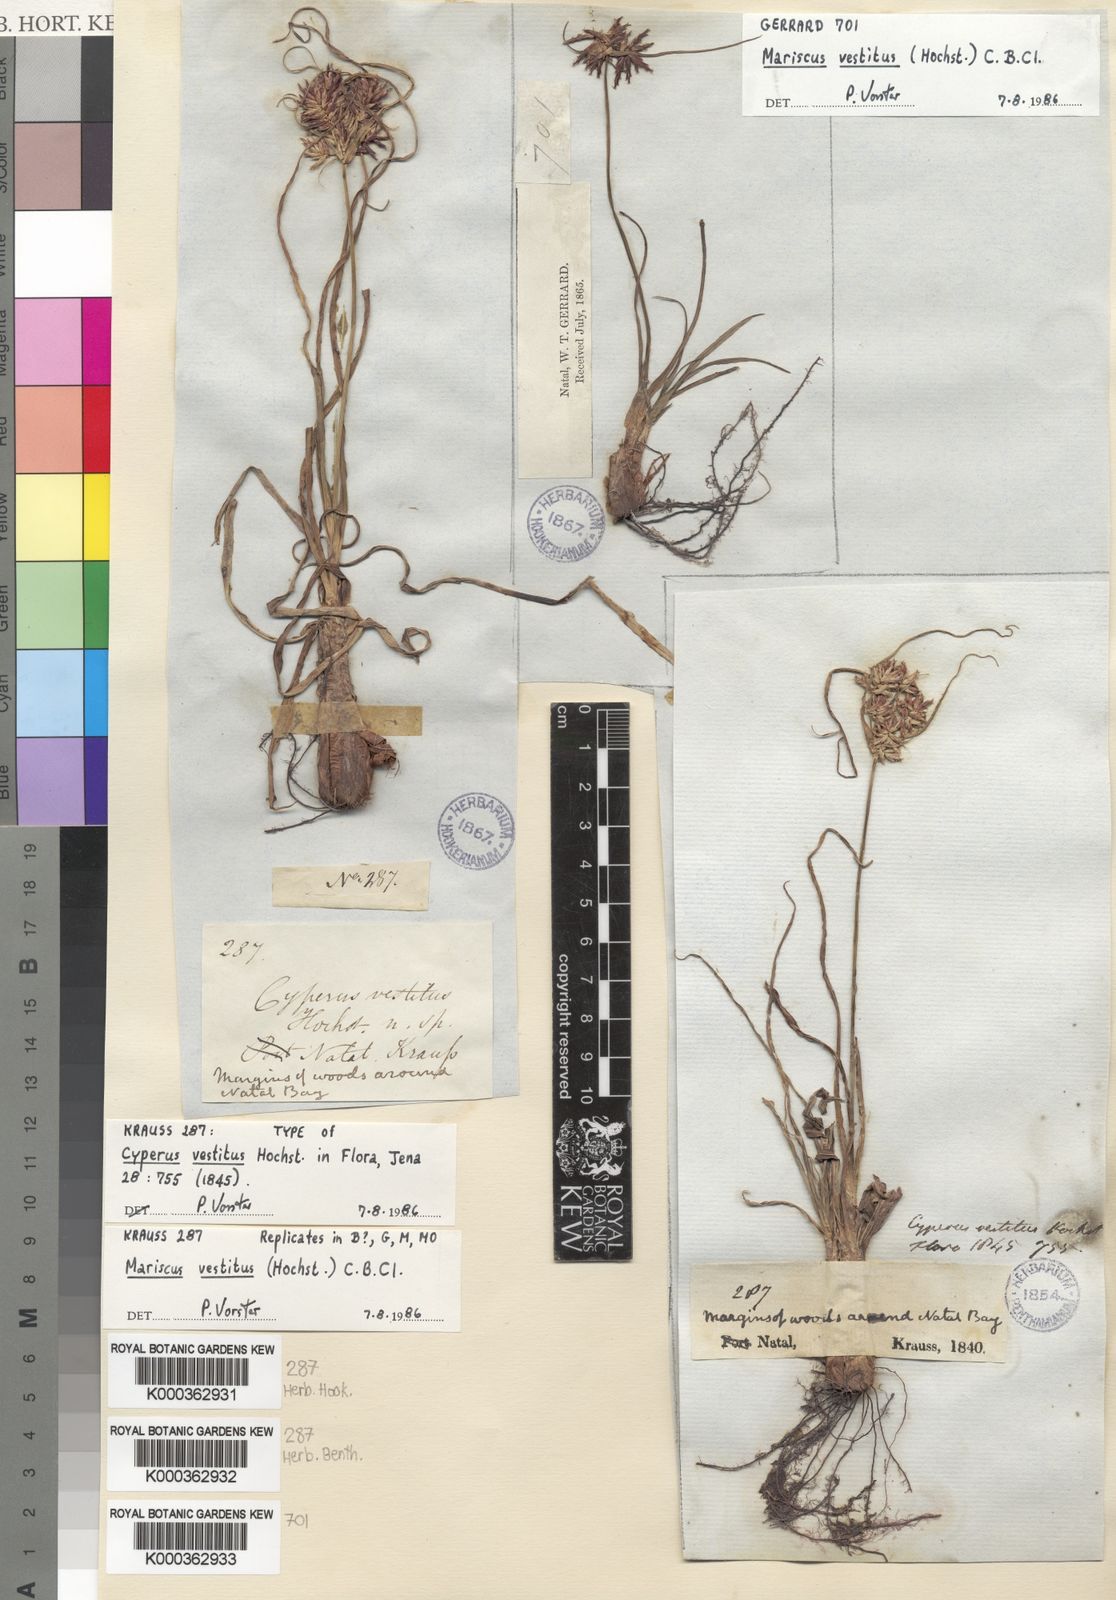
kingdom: Plantae
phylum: Tracheophyta
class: Liliopsida
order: Poales
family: Cyperaceae
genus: Cyperus
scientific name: Cyperus vestitus
